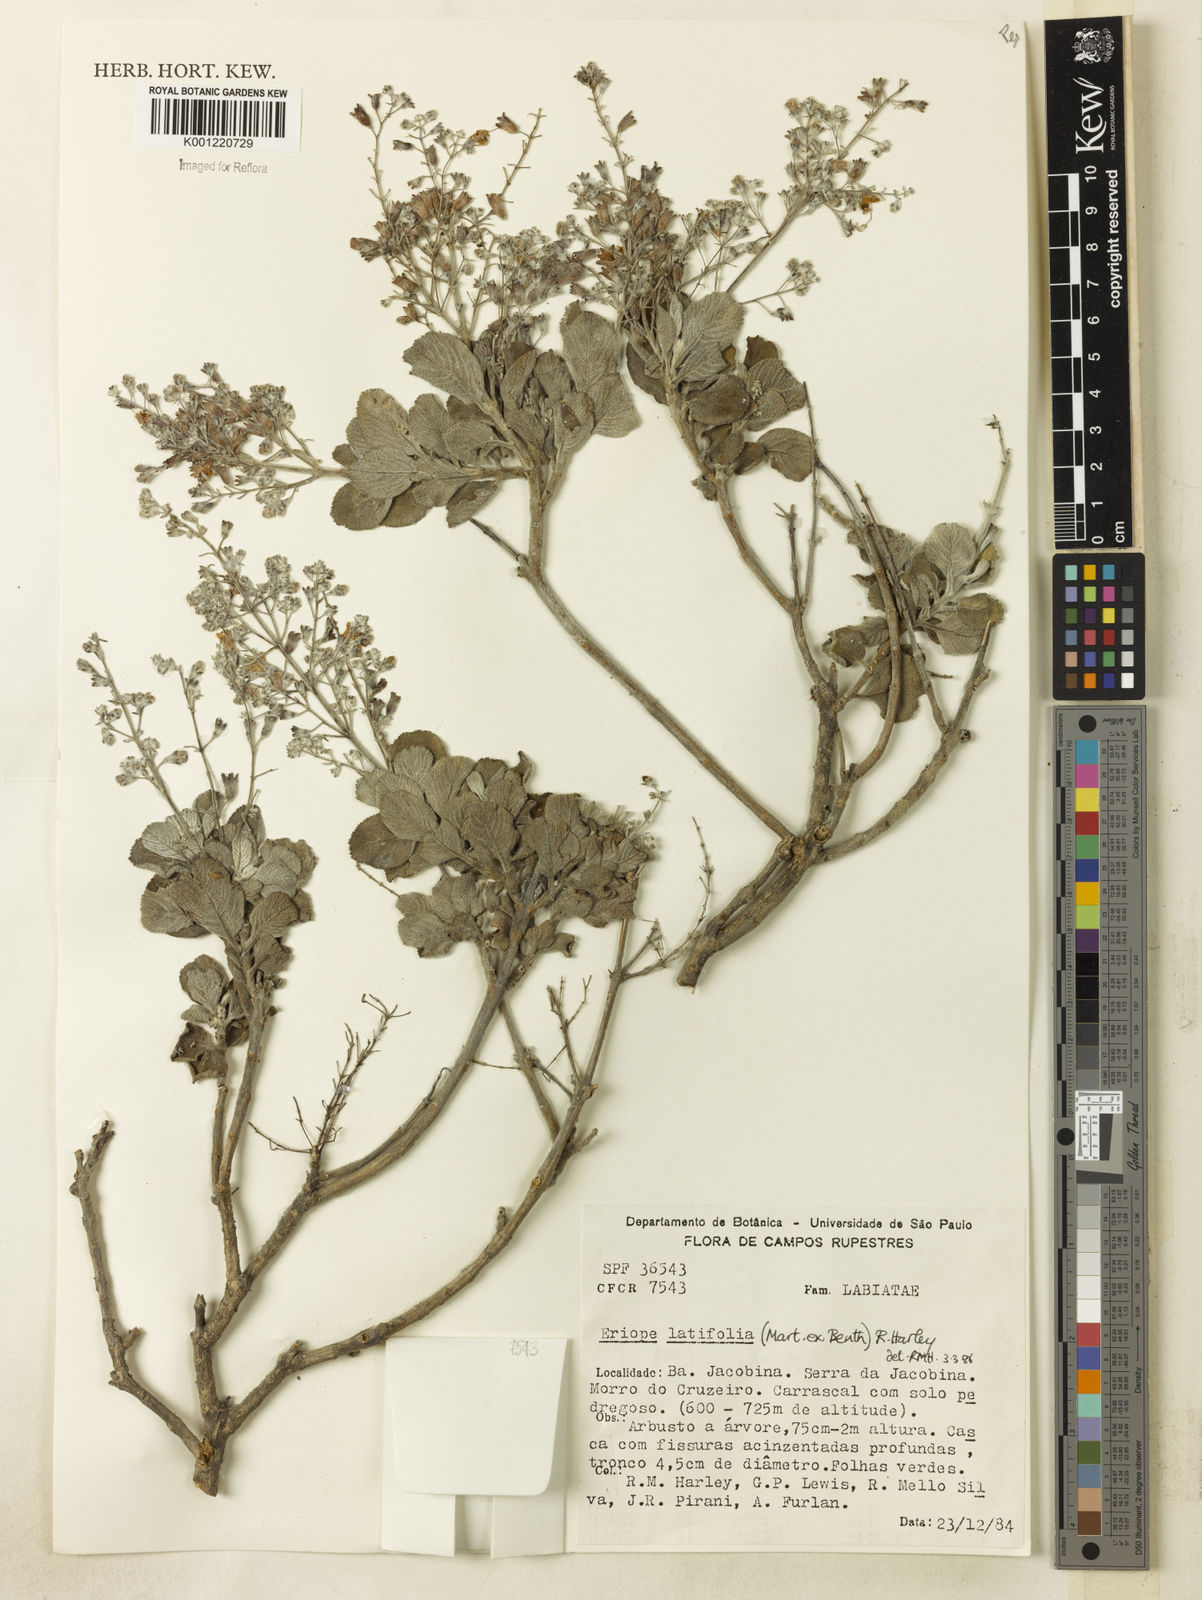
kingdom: Plantae
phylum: Tracheophyta
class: Magnoliopsida
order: Lamiales
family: Lamiaceae
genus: Eriope
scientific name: Eriope latifolia
